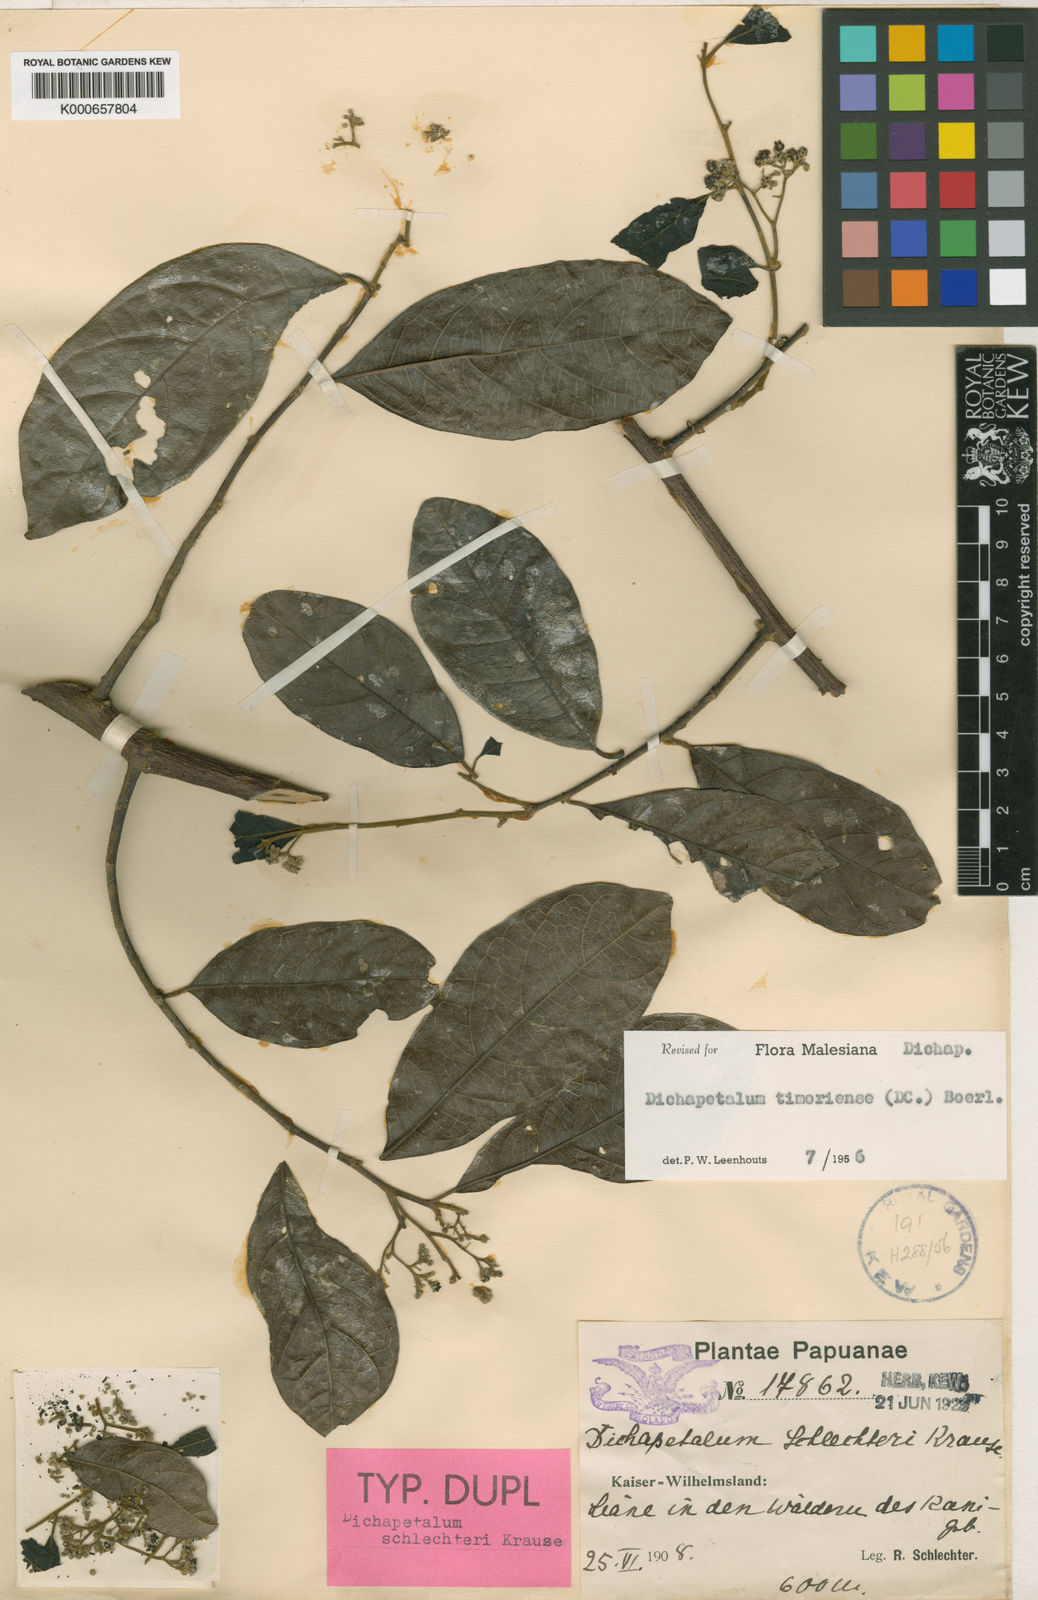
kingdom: Plantae
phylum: Tracheophyta
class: Magnoliopsida
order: Malpighiales
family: Dichapetalaceae
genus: Dichapetalum
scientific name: Dichapetalum timoriense
